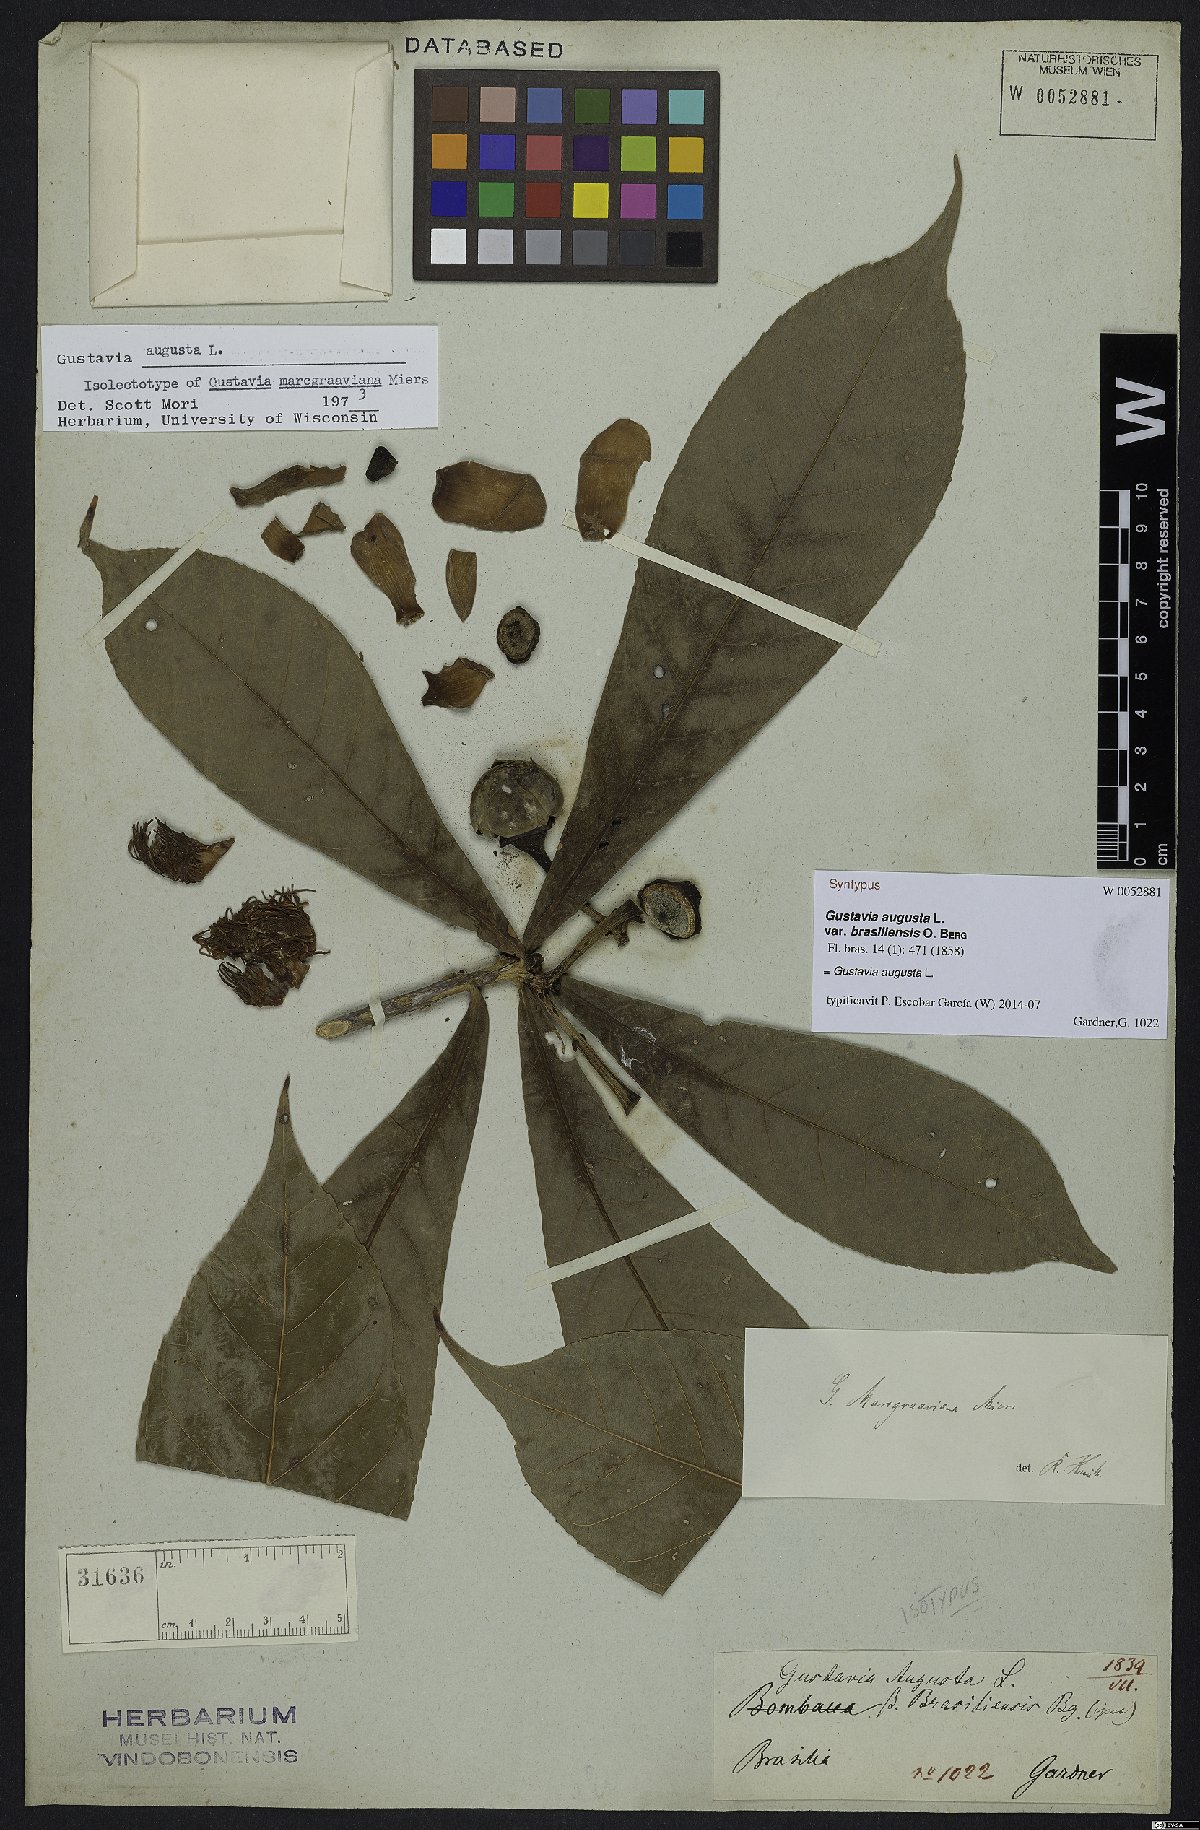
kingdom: Plantae
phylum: Tracheophyta
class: Magnoliopsida
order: Ericales
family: Lecythidaceae
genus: Gustavia
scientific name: Gustavia augusta
